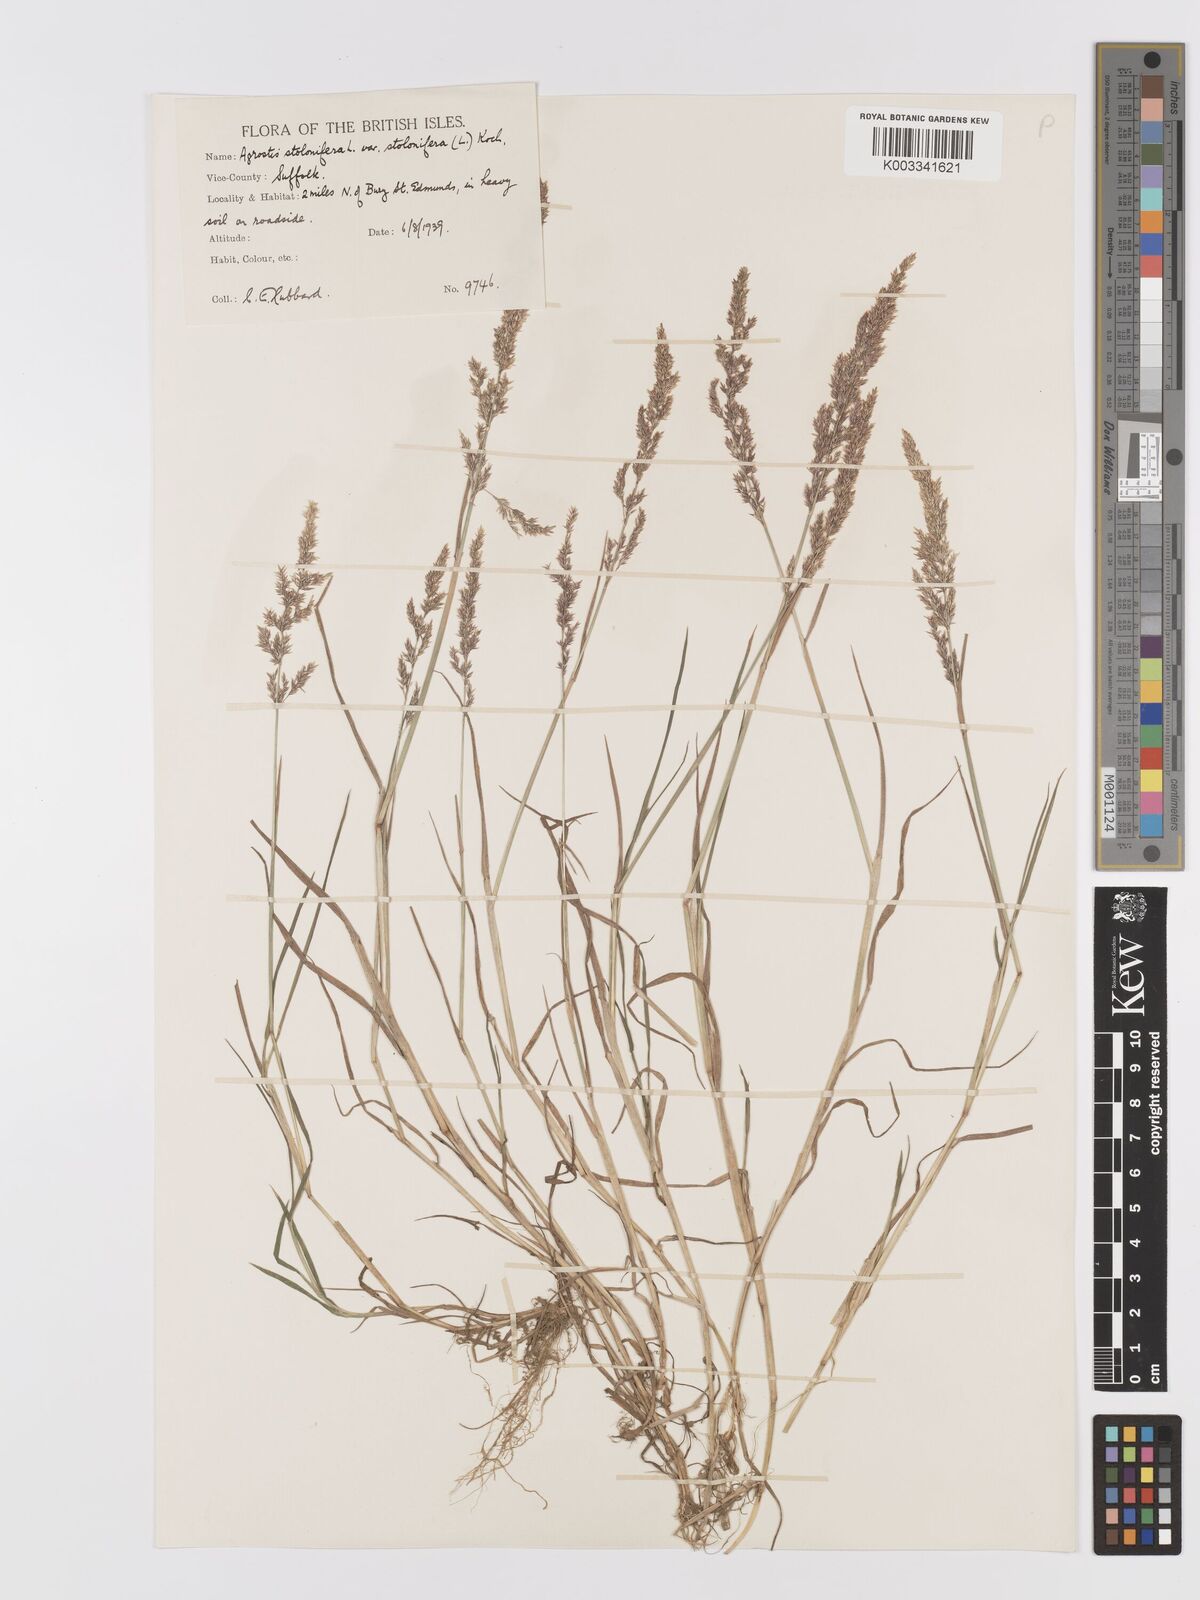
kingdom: Plantae
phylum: Tracheophyta
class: Liliopsida
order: Poales
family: Poaceae
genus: Agrostis
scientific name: Agrostis stolonifera
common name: Creeping bentgrass
